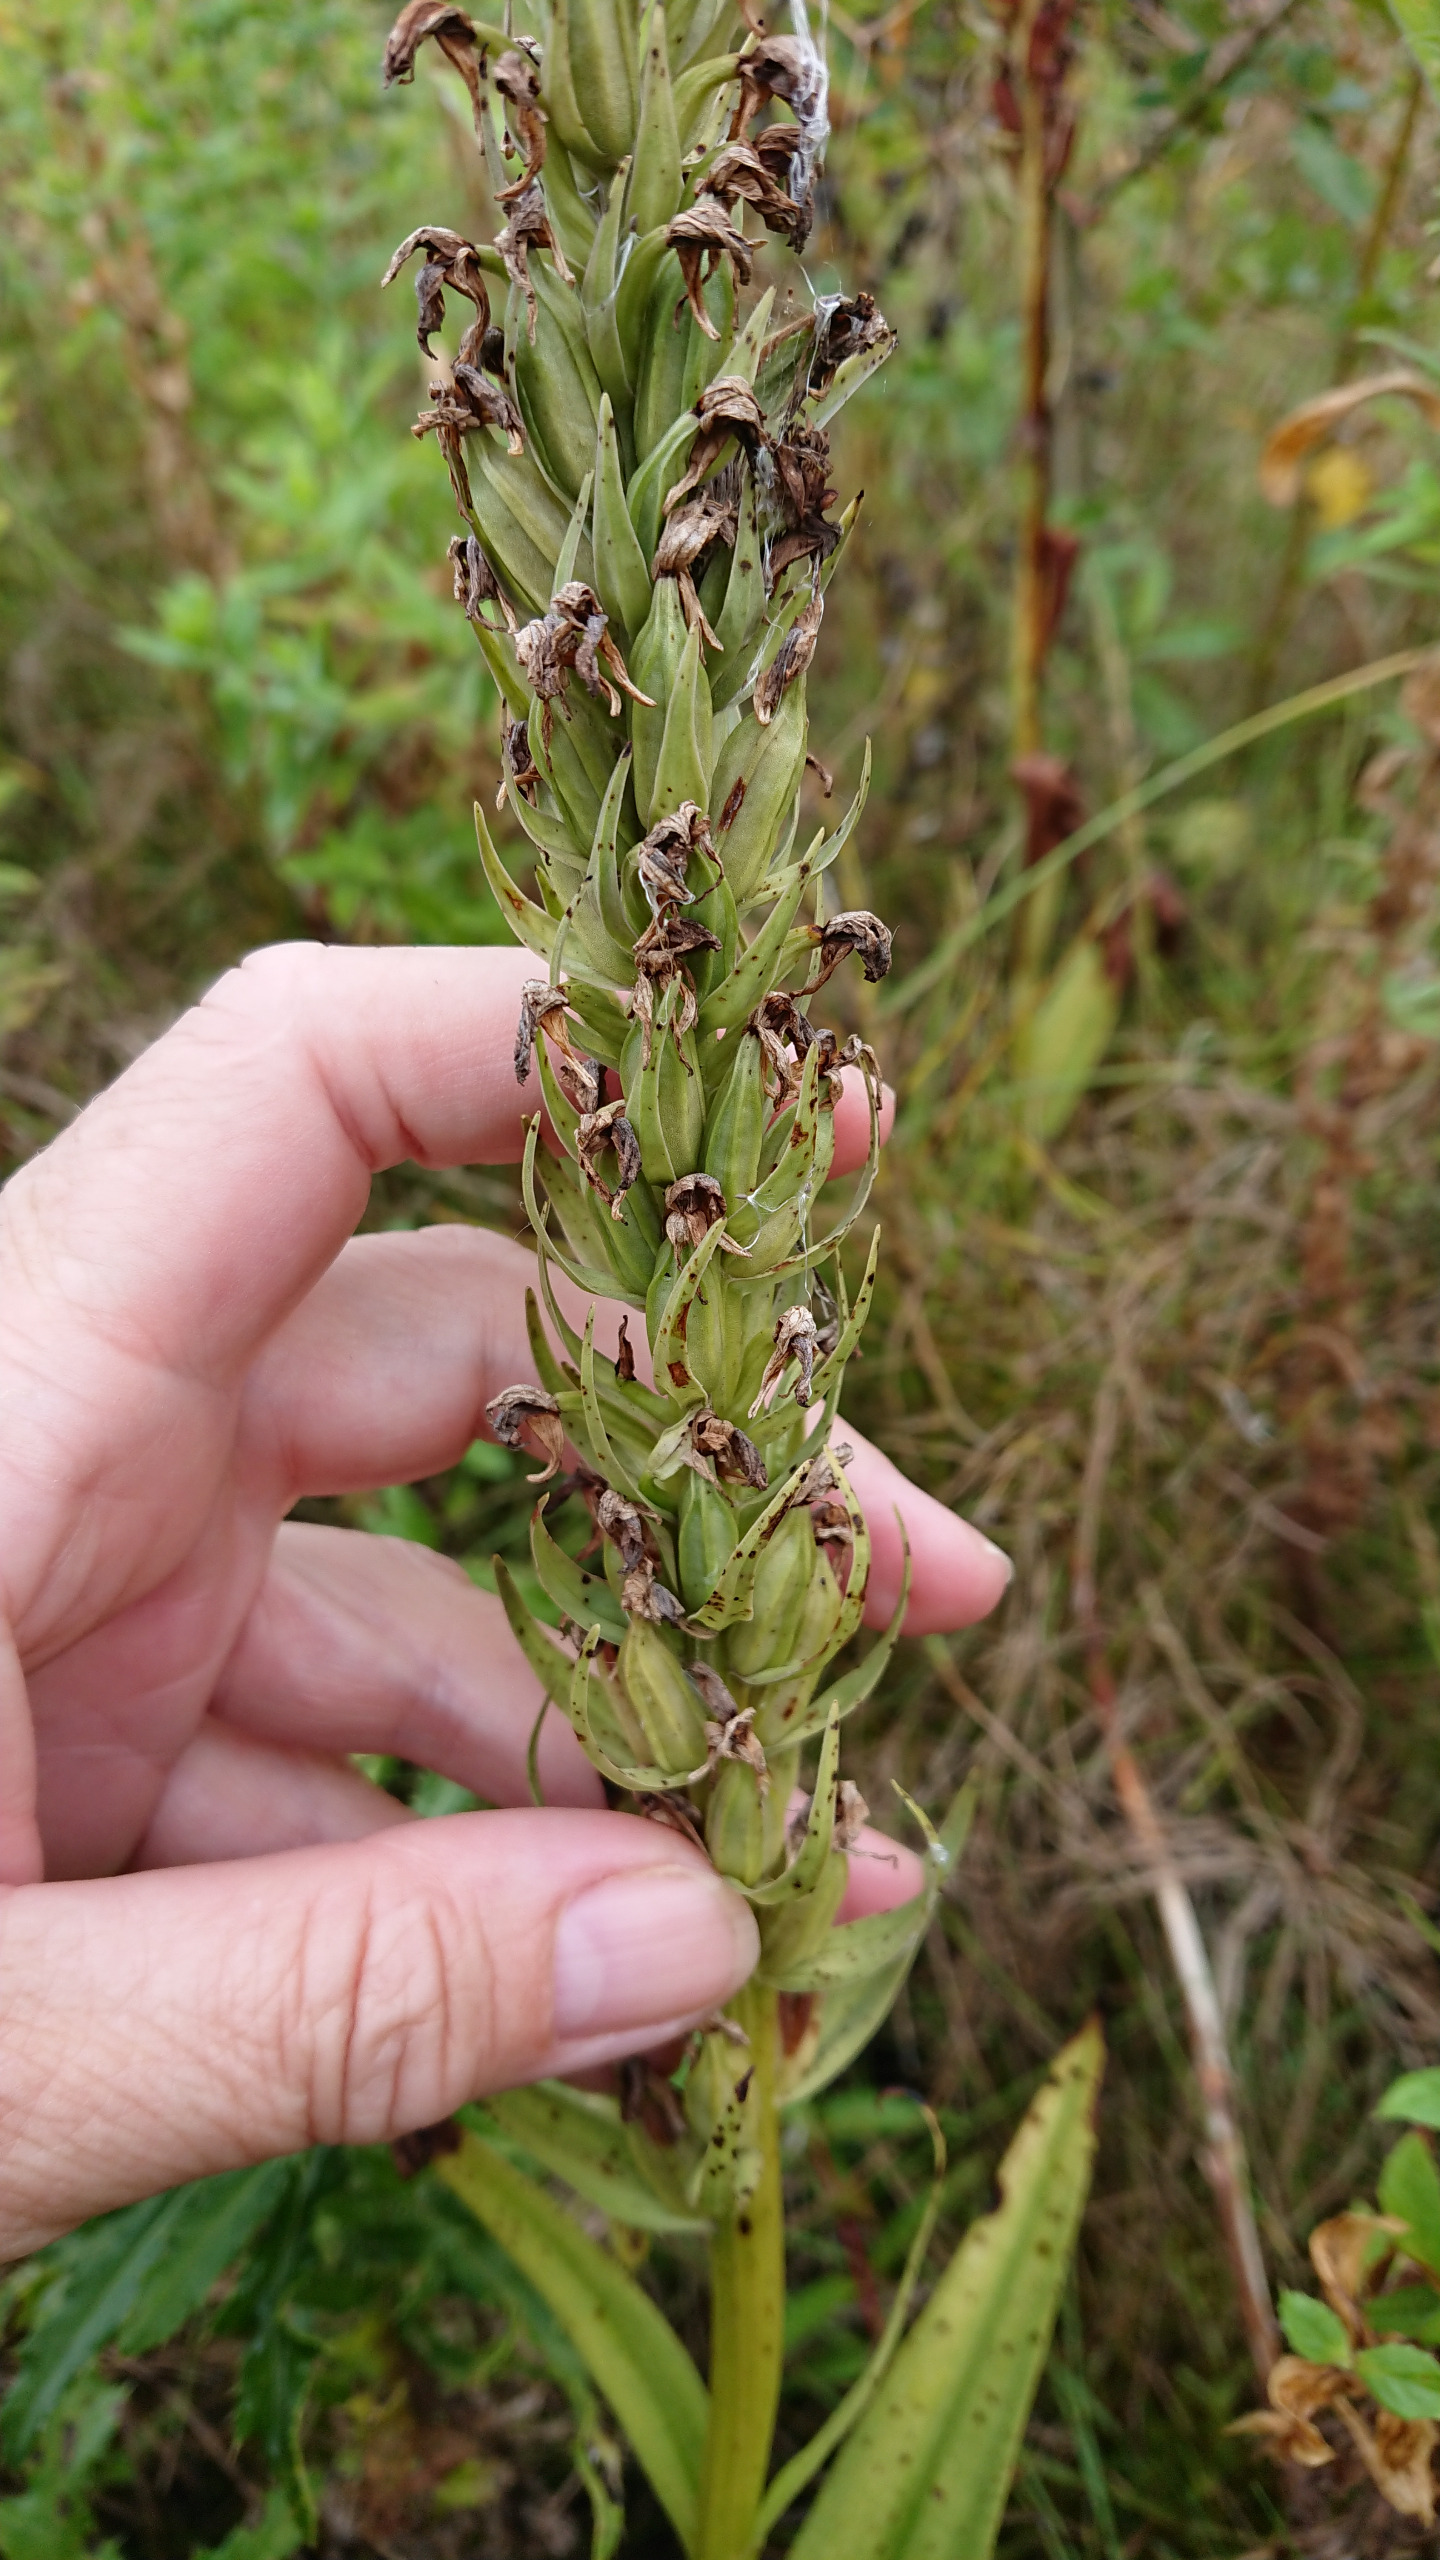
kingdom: Plantae
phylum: Tracheophyta
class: Liliopsida
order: Asparagales
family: Orchidaceae
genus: Dactylorhiza
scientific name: Dactylorhiza incarnata
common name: Kødfarvet gøgeurt
